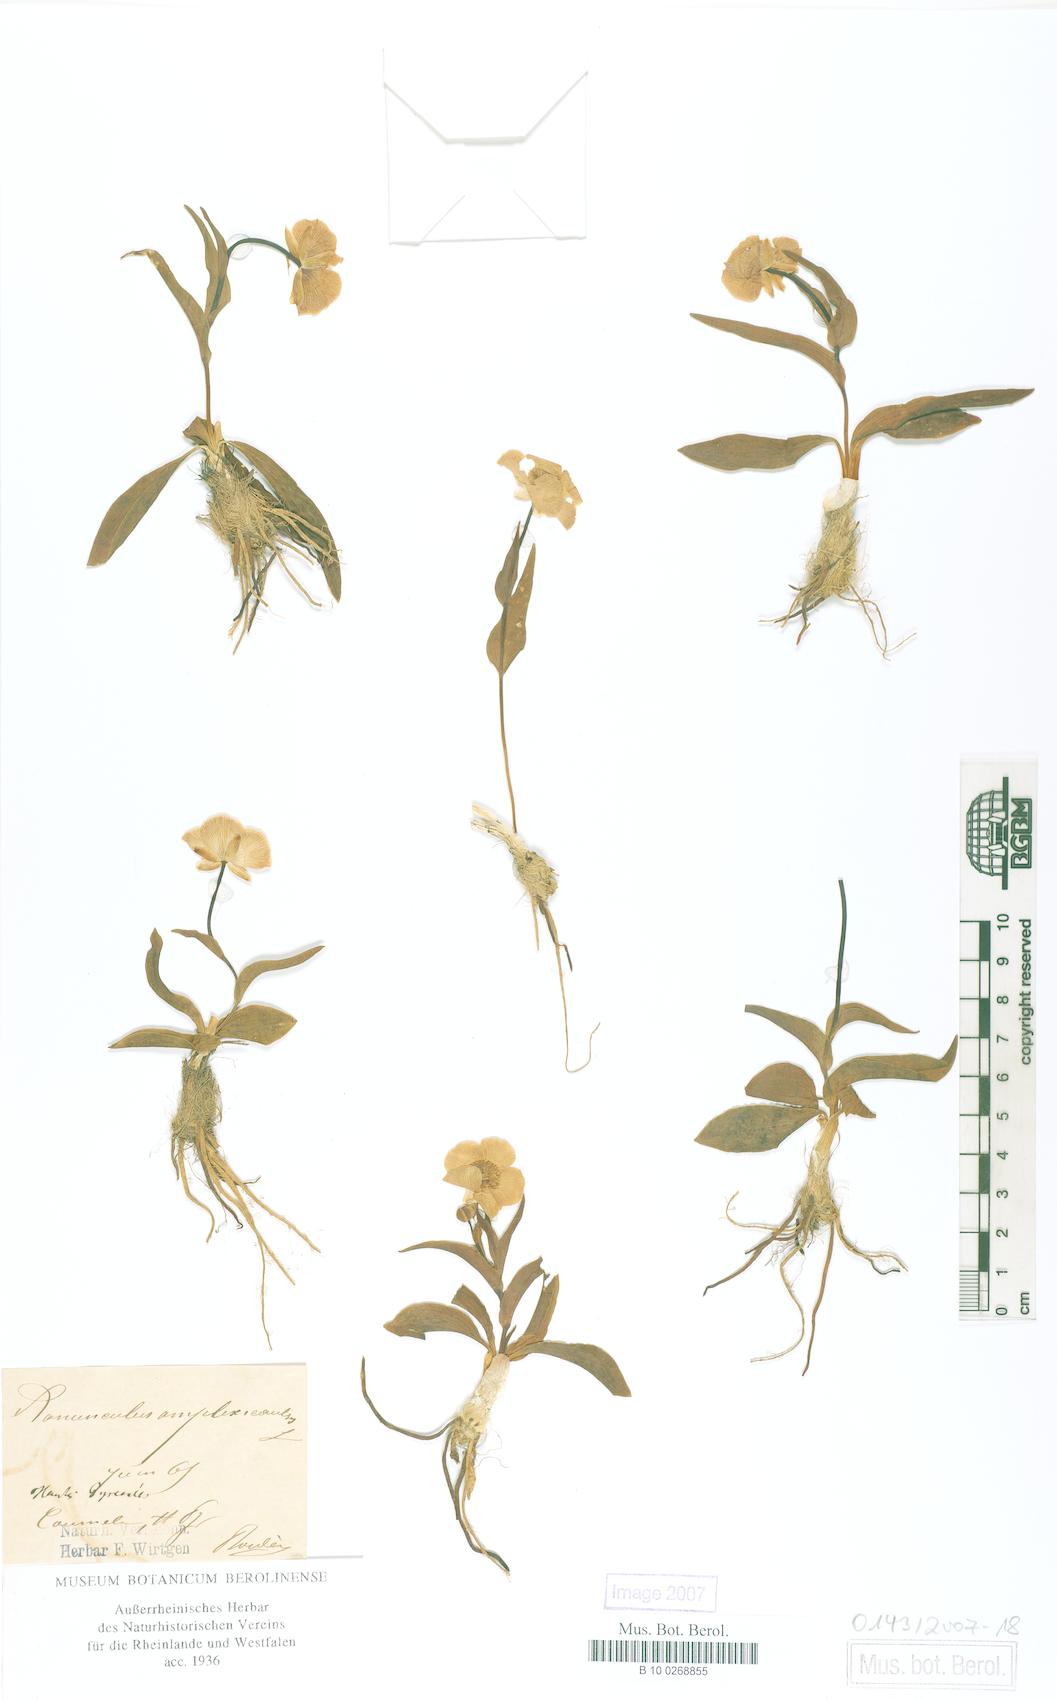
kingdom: Plantae
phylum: Tracheophyta
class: Magnoliopsida
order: Ranunculales
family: Ranunculaceae
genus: Ranunculus
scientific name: Ranunculus amplexicaulis
